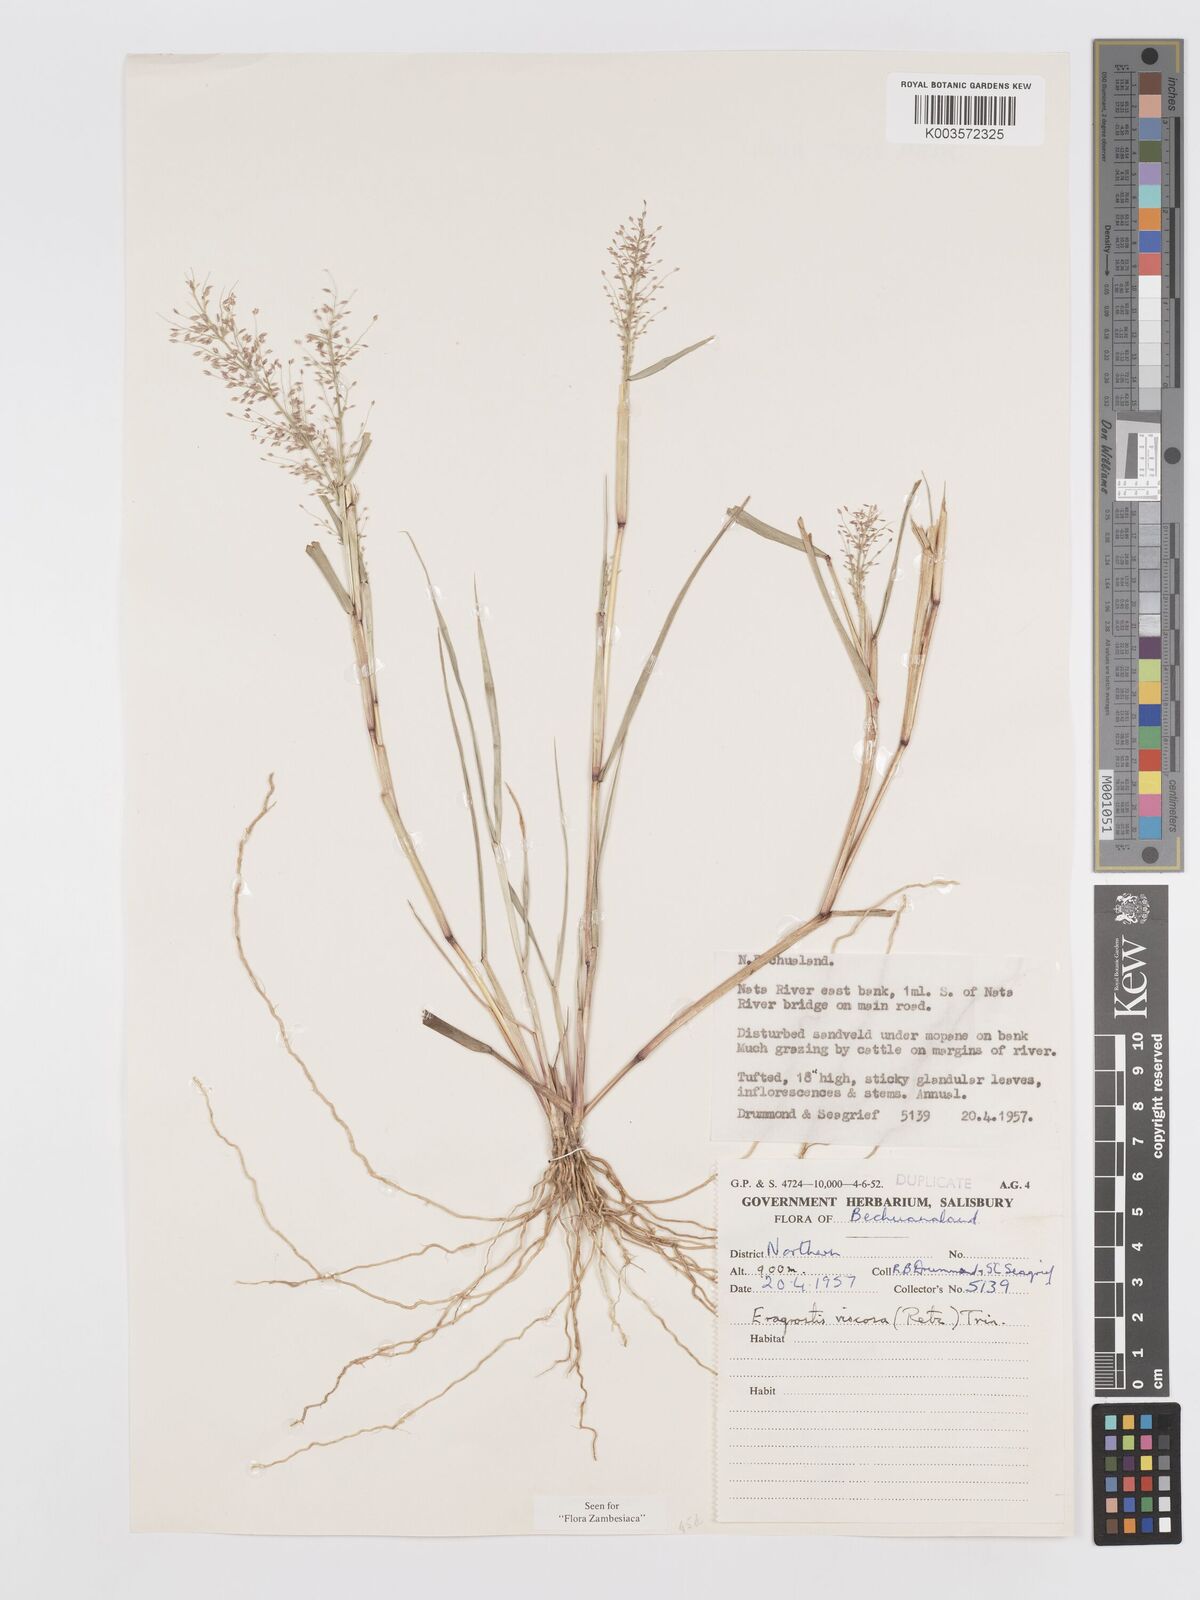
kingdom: Plantae
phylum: Tracheophyta
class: Liliopsida
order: Poales
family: Poaceae
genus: Eragrostis
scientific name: Eragrostis
